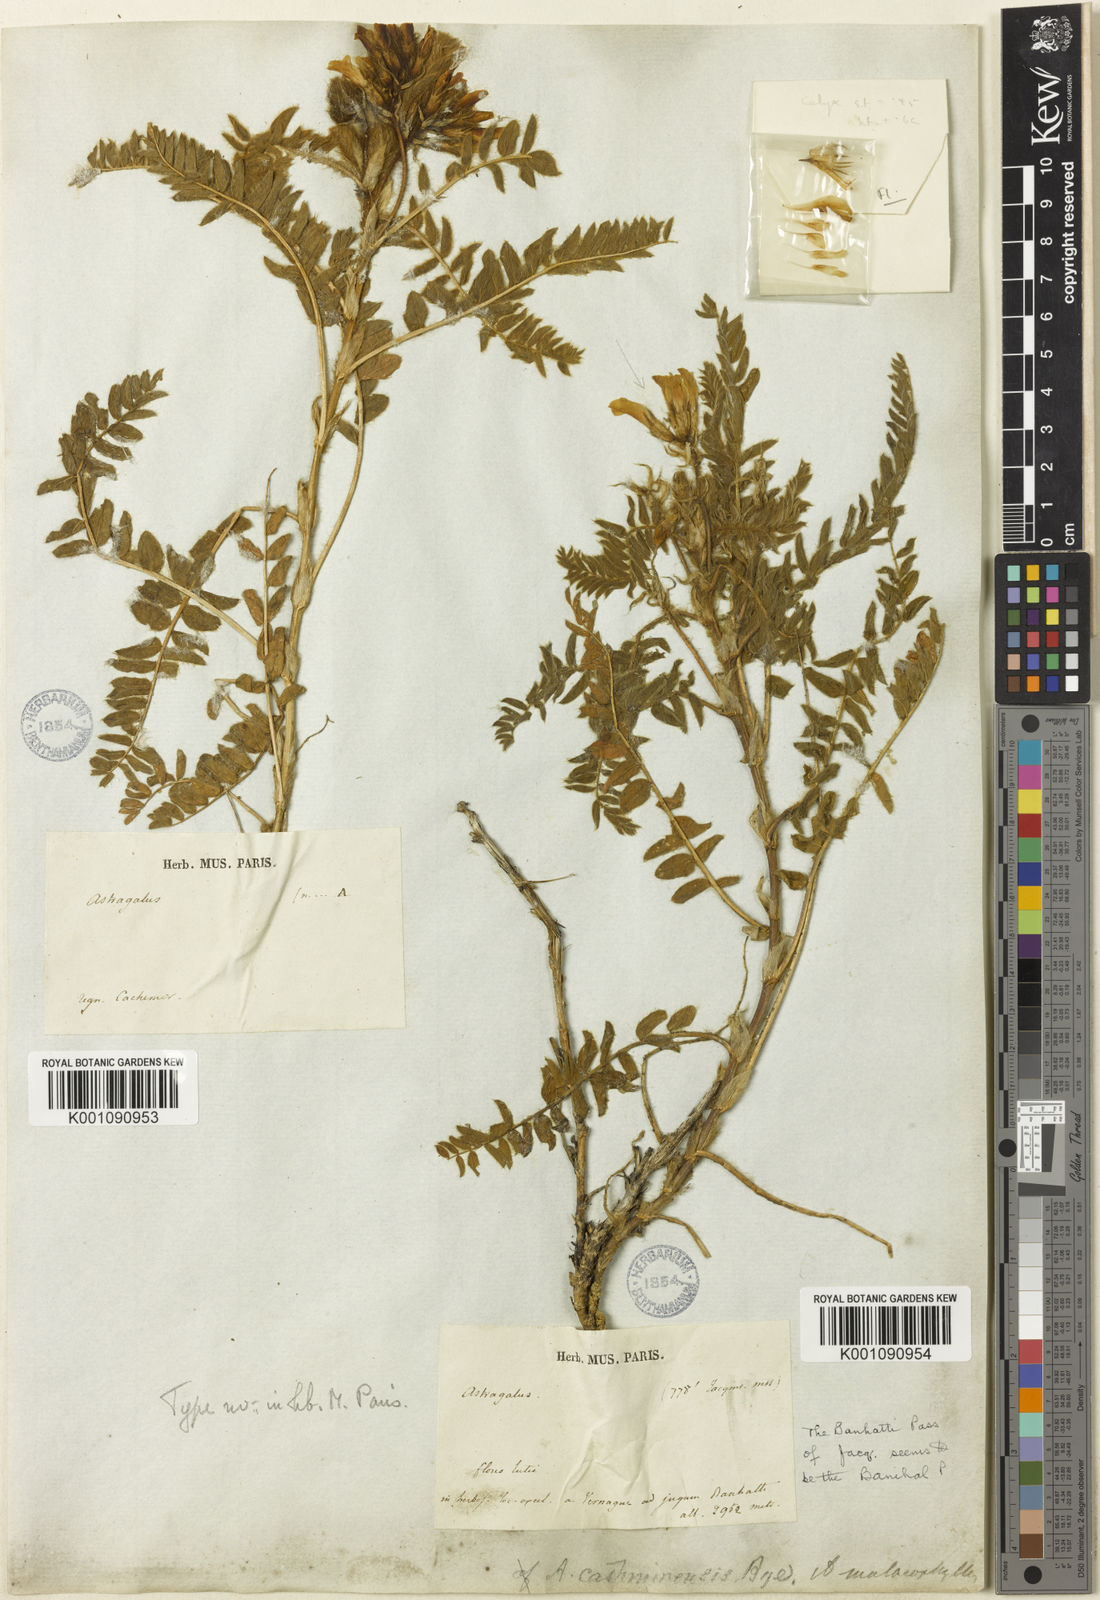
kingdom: Plantae
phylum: Tracheophyta
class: Magnoliopsida
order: Fabales
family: Fabaceae
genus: Astragalus
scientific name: Astragalus
